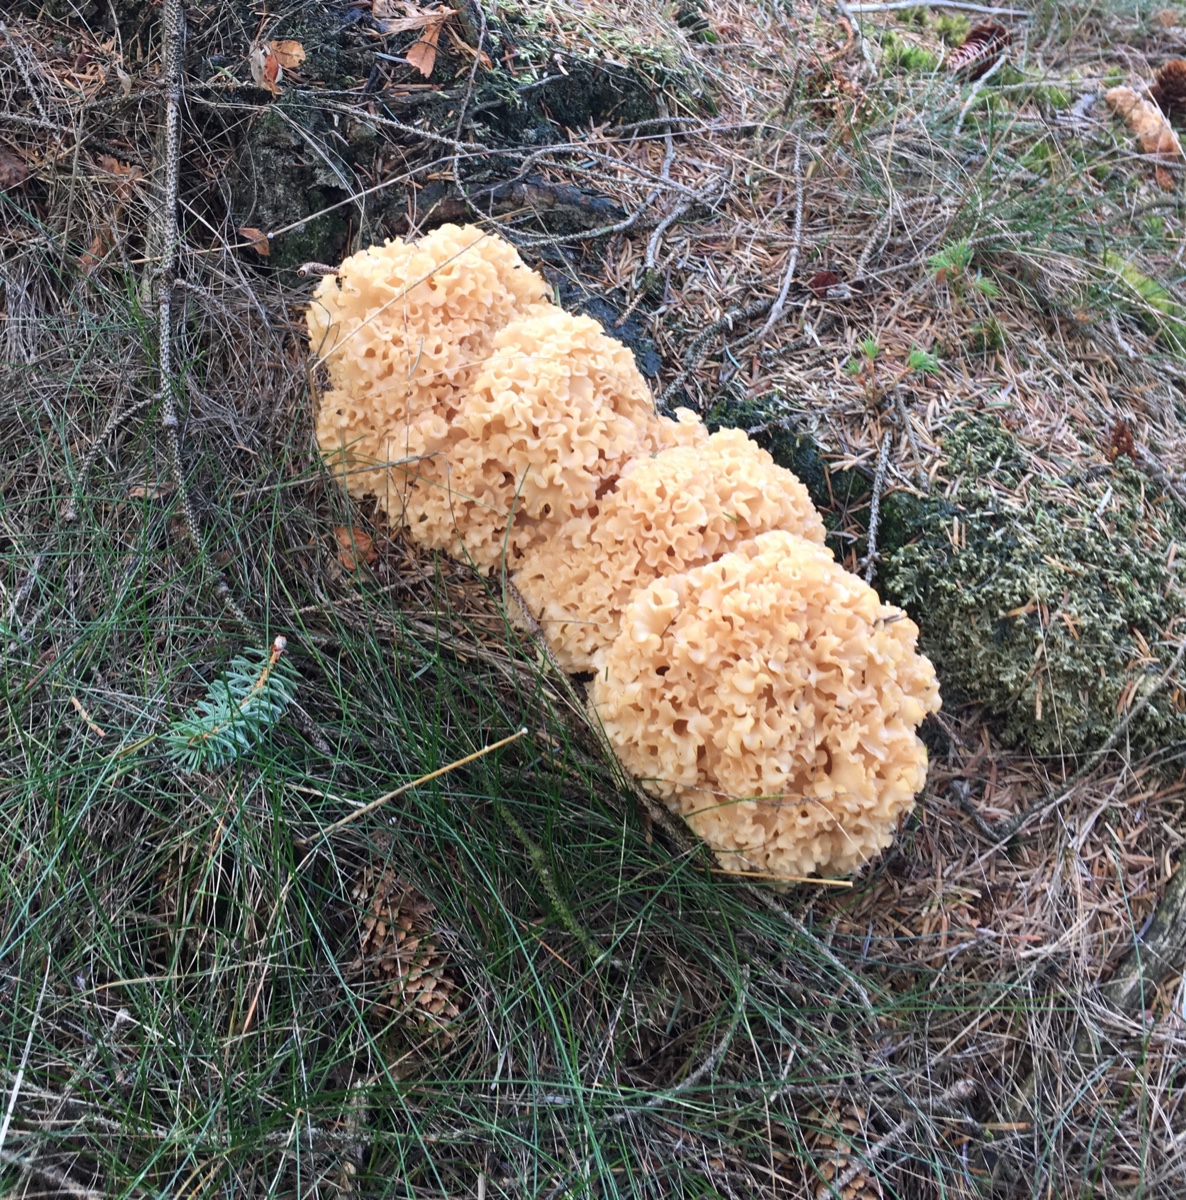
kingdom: Fungi
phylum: Basidiomycota
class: Agaricomycetes
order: Polyporales
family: Sparassidaceae
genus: Sparassis
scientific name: Sparassis crispa
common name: kruset blomkålssvamp
